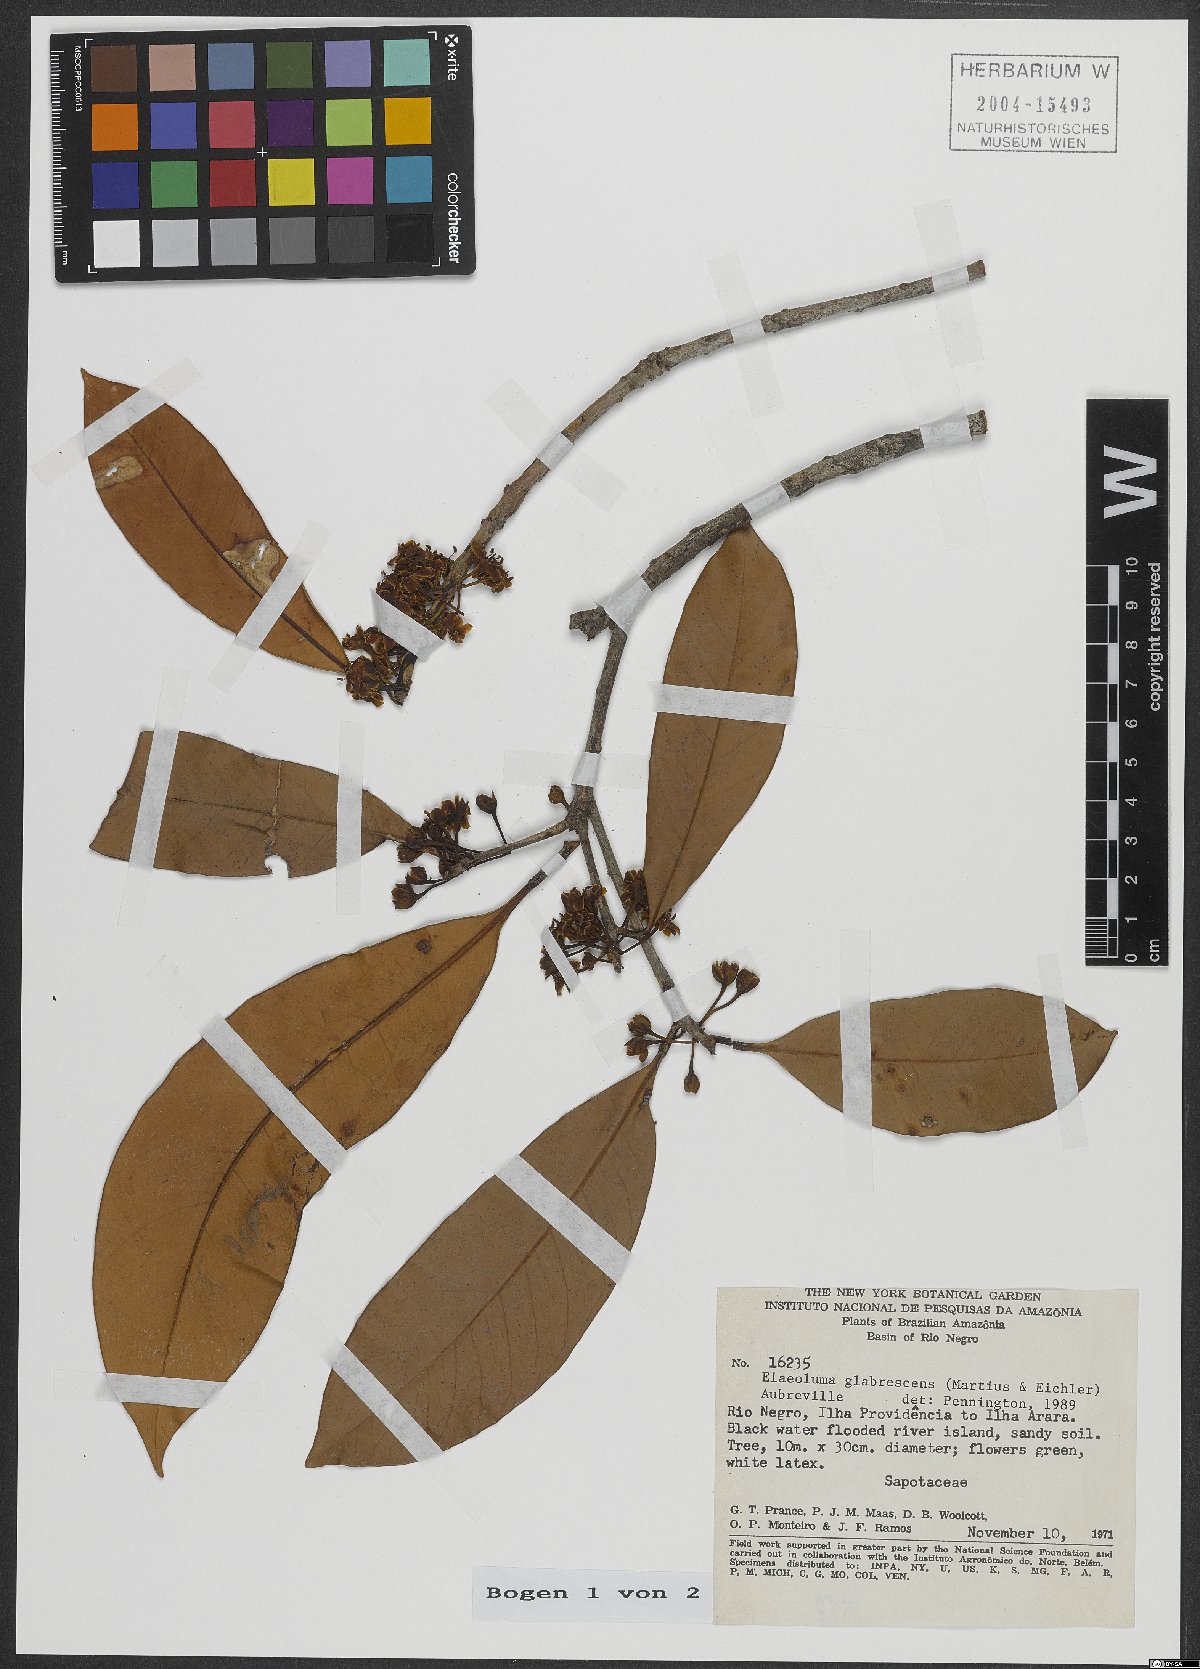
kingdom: Plantae
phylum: Tracheophyta
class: Magnoliopsida
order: Ericales
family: Sapotaceae
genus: Elaeoluma
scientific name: Elaeoluma glabrescens
